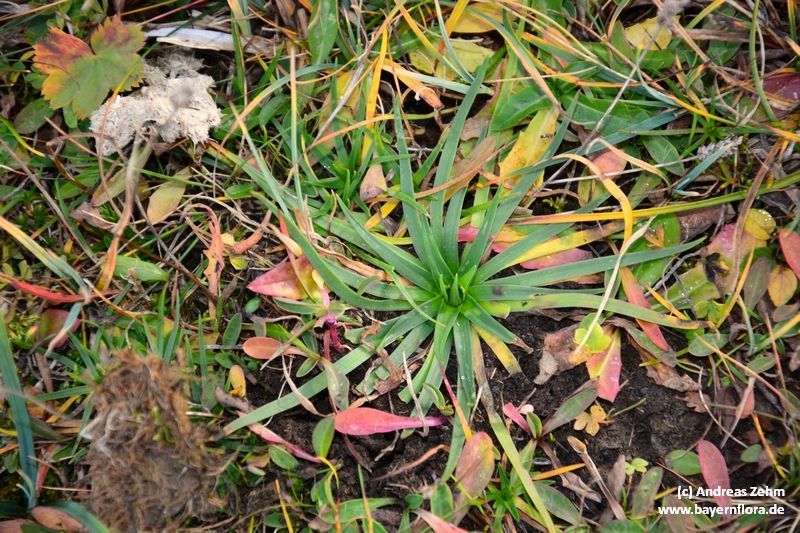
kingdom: Plantae
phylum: Tracheophyta
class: Magnoliopsida
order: Lamiales
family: Plantaginaceae
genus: Plantago
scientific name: Plantago alpina
